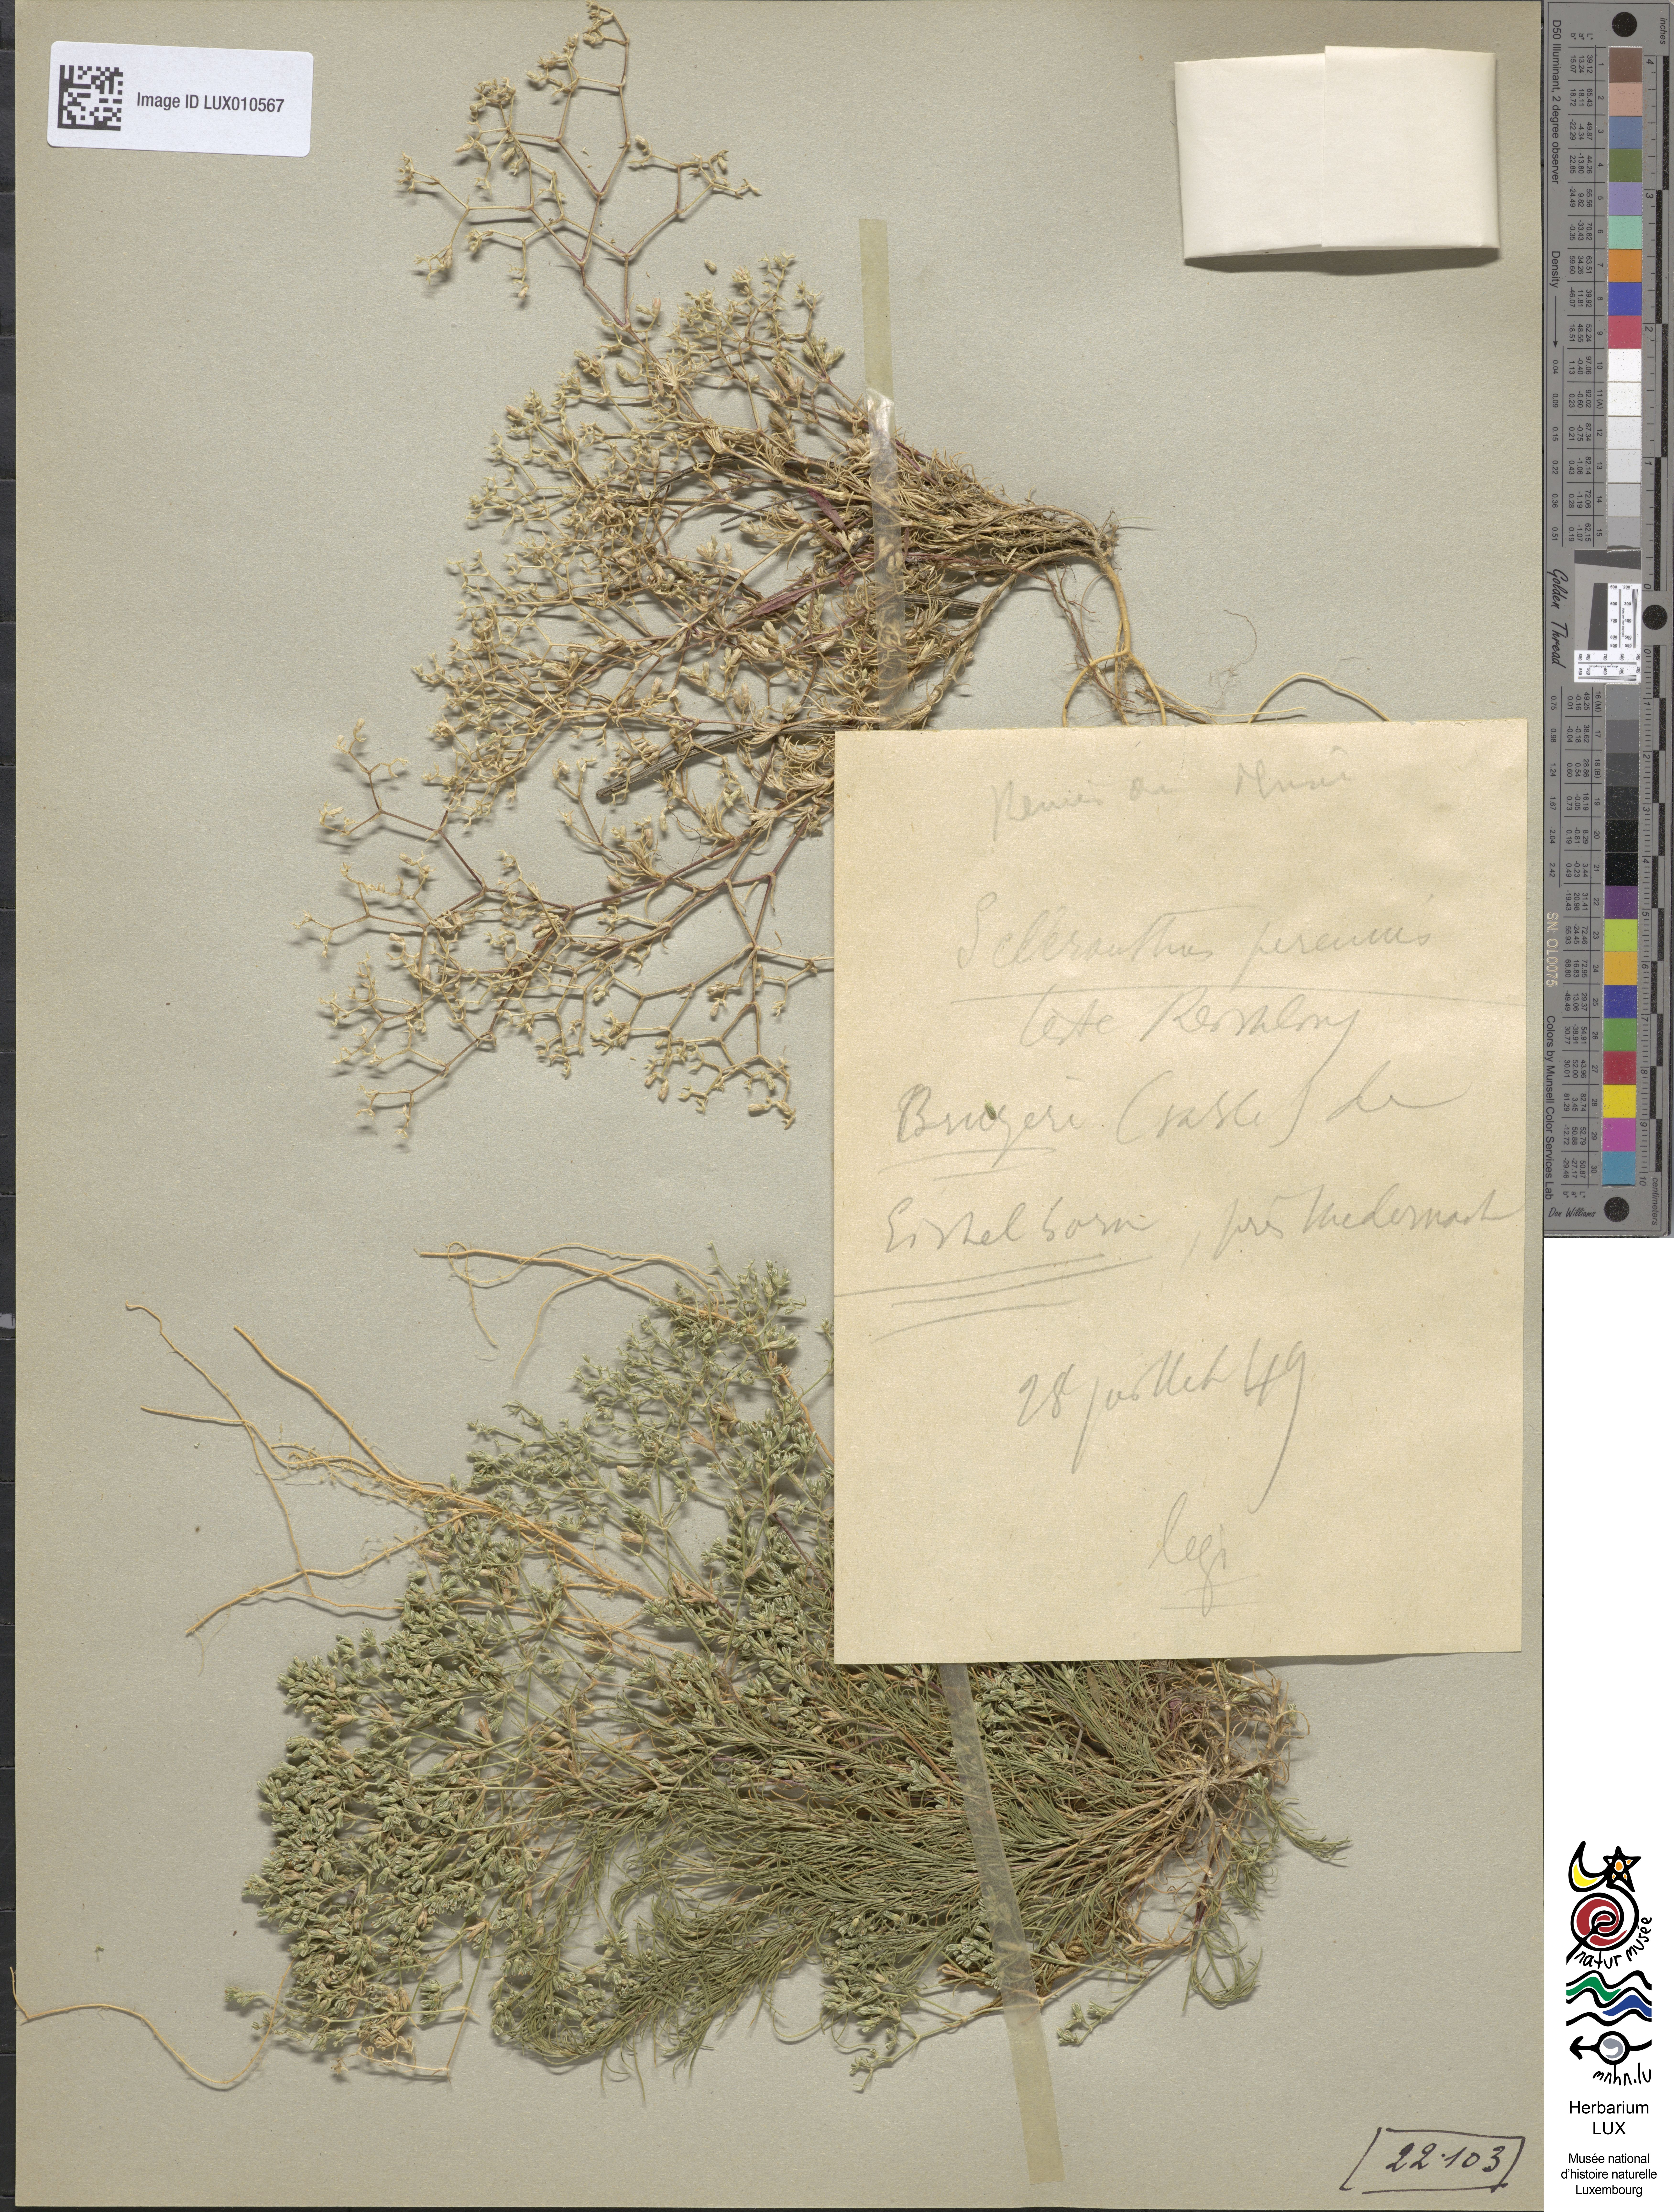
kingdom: Plantae
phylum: Tracheophyta
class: Magnoliopsida
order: Caryophyllales
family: Caryophyllaceae
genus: Scleranthus
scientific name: Scleranthus perennis
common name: Perennial knawel
